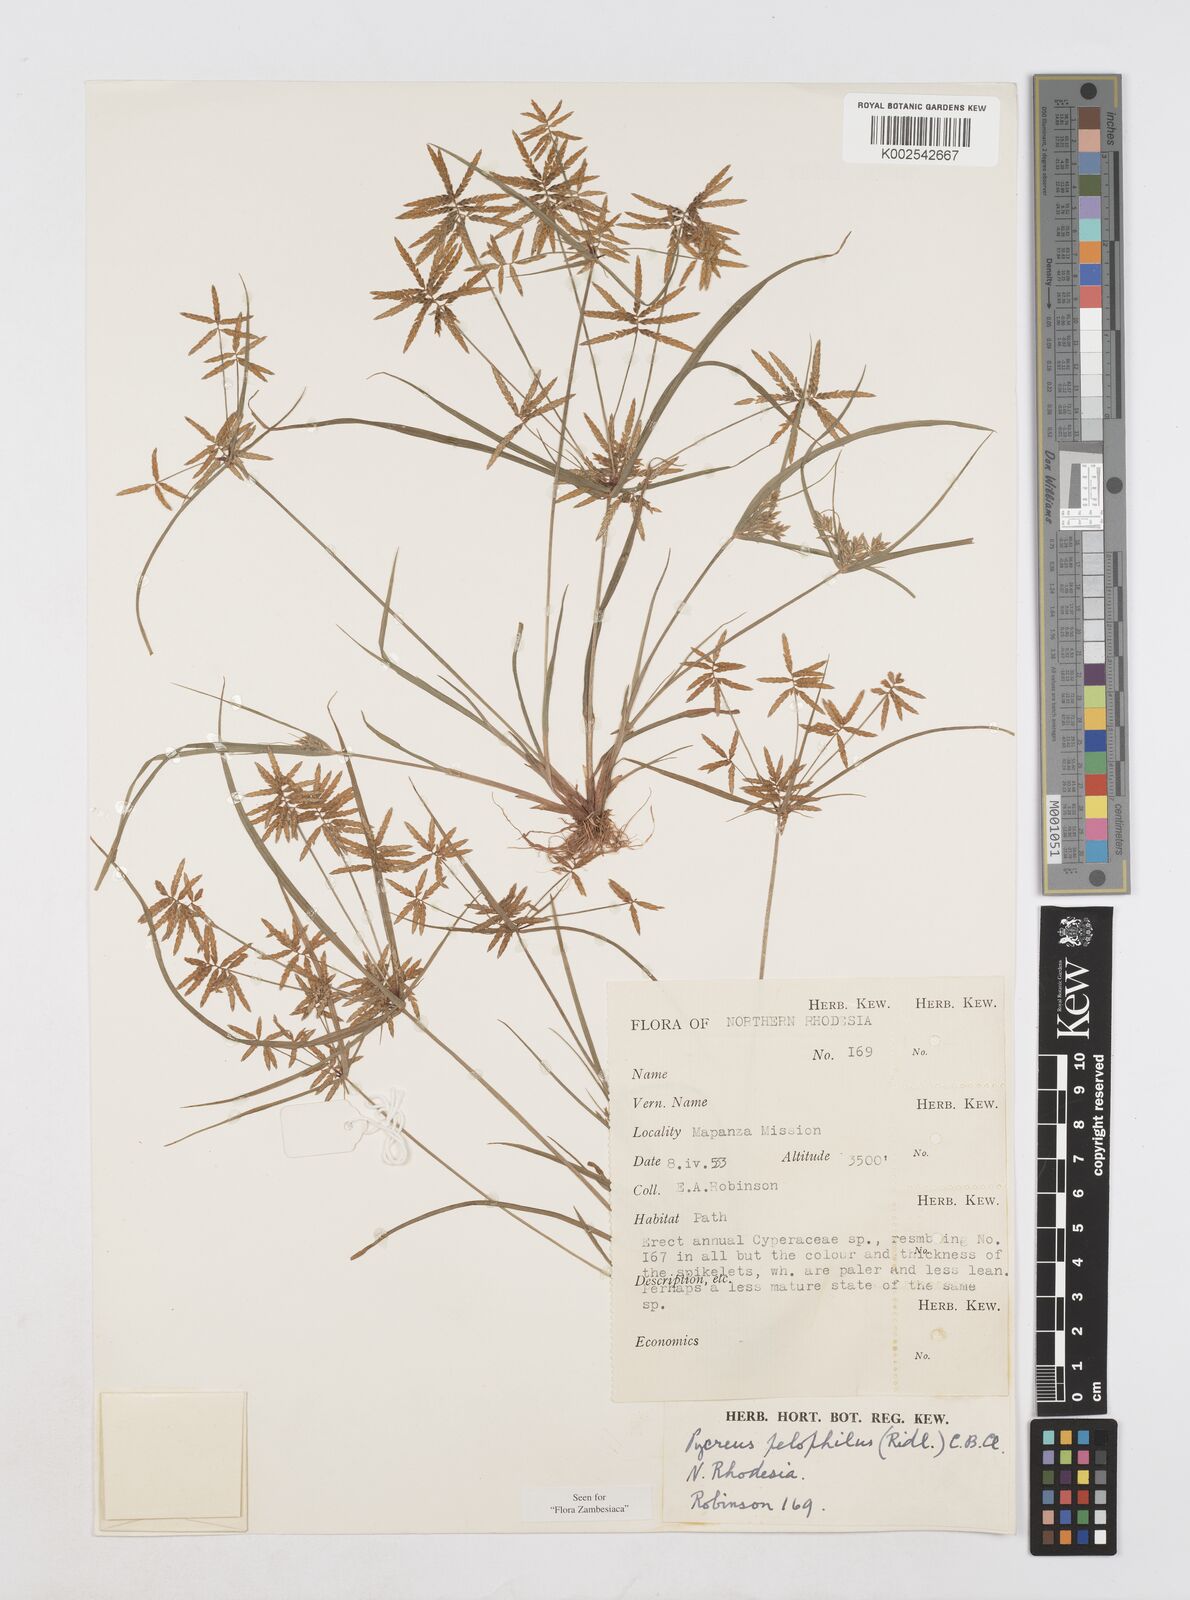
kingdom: Plantae
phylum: Tracheophyta
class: Liliopsida
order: Poales
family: Cyperaceae
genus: Cyperus
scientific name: Cyperus pelophilus
